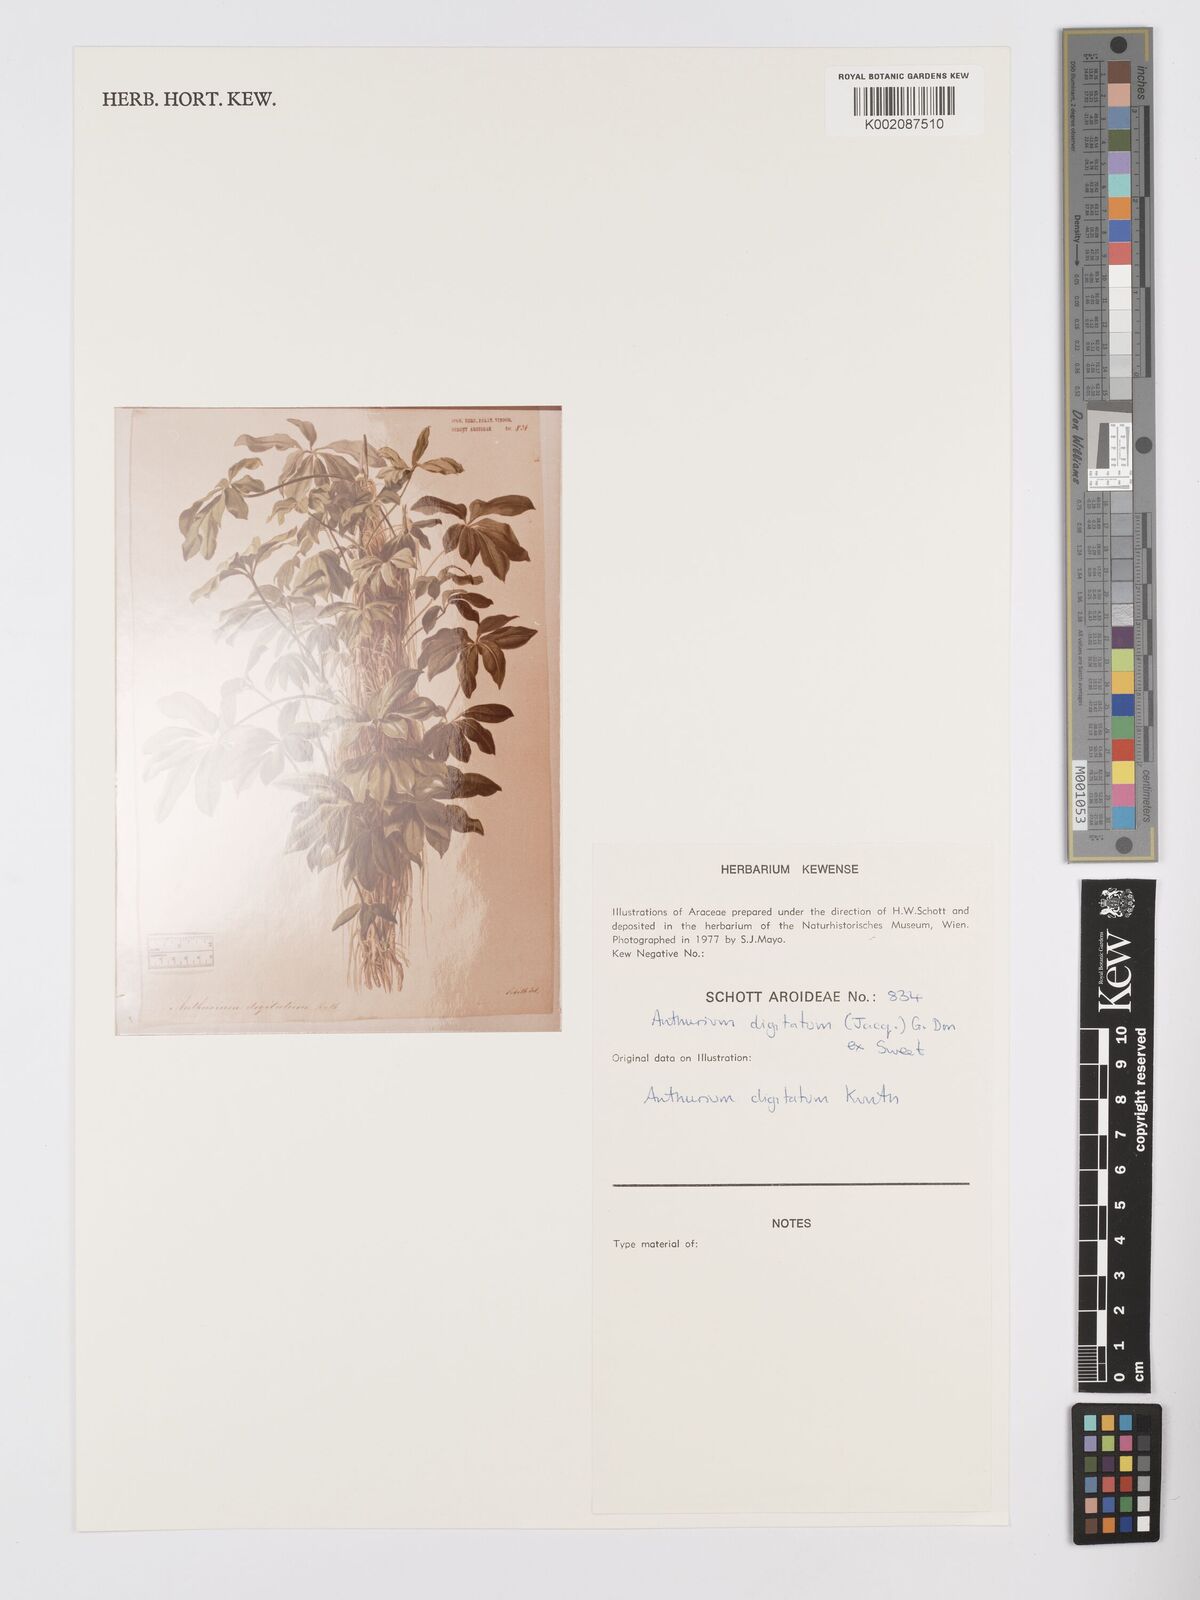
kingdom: Plantae
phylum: Tracheophyta
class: Liliopsida
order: Alismatales
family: Araceae
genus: Anthurium
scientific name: Anthurium digitatum
